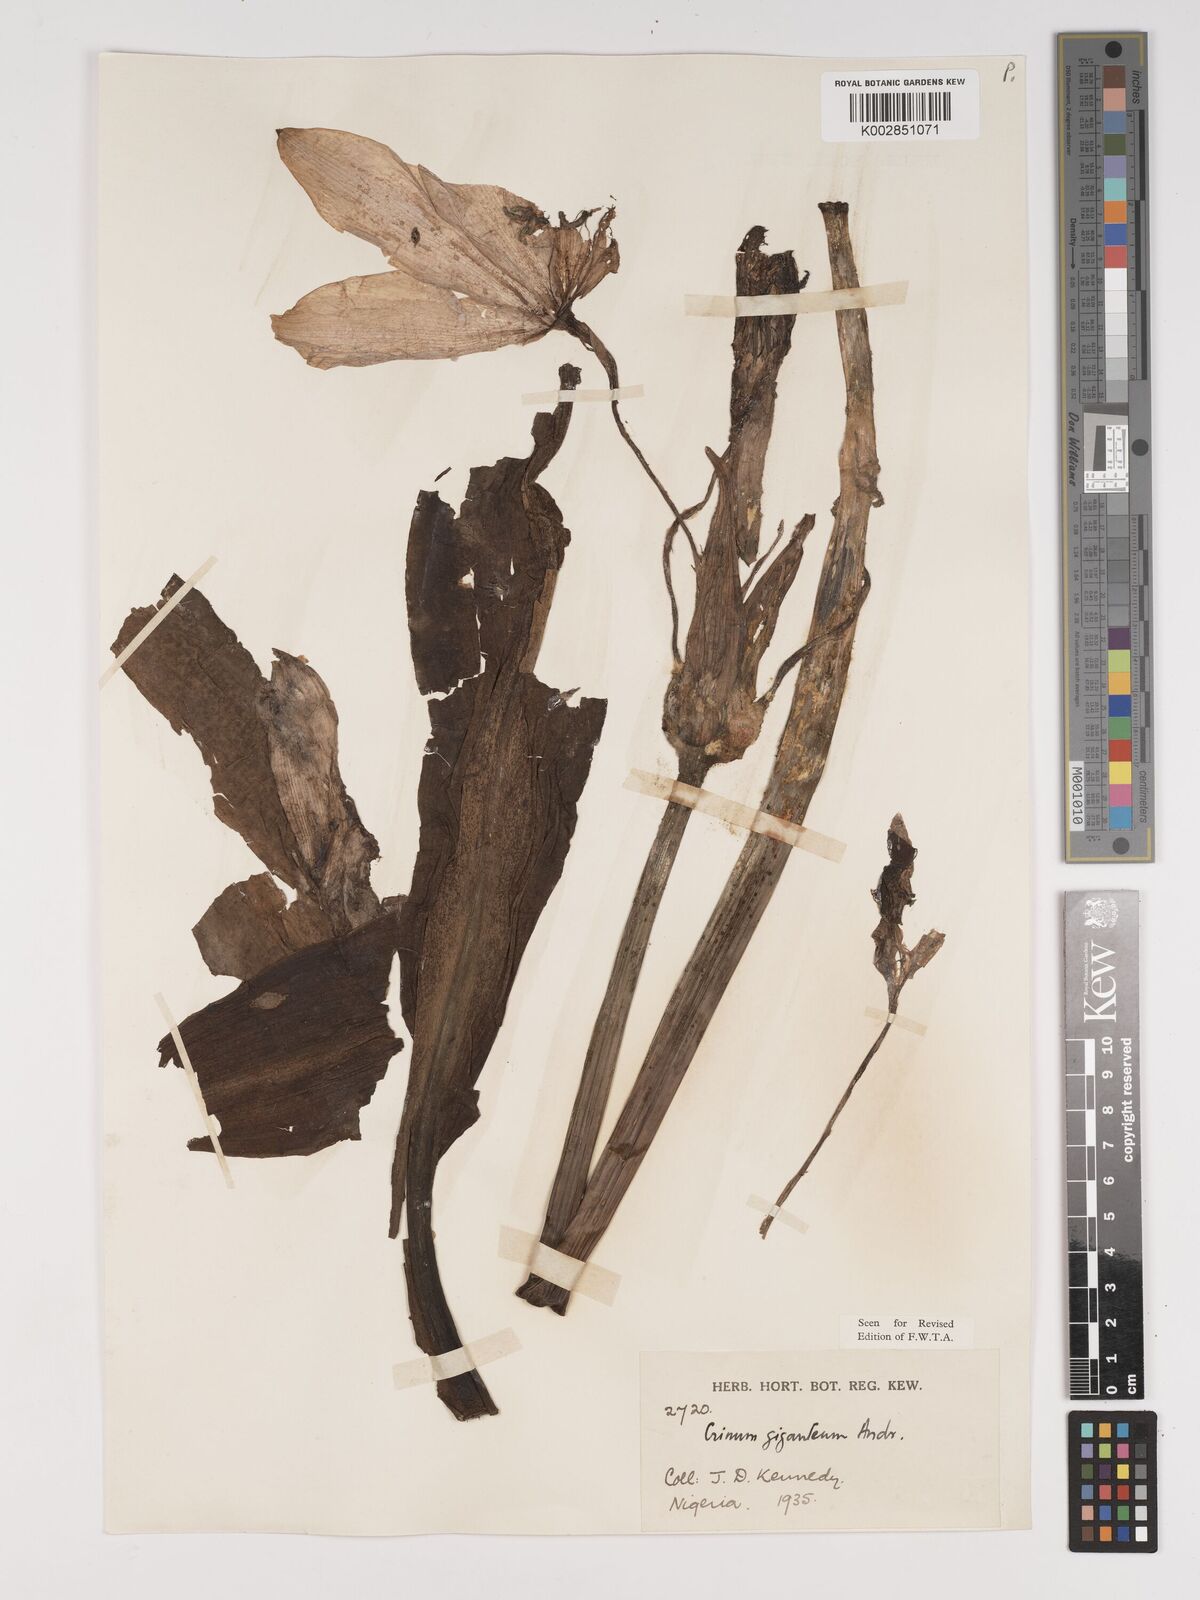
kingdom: Plantae
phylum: Tracheophyta
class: Liliopsida
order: Asparagales
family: Amaryllidaceae
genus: Crinum
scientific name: Crinum jagus
